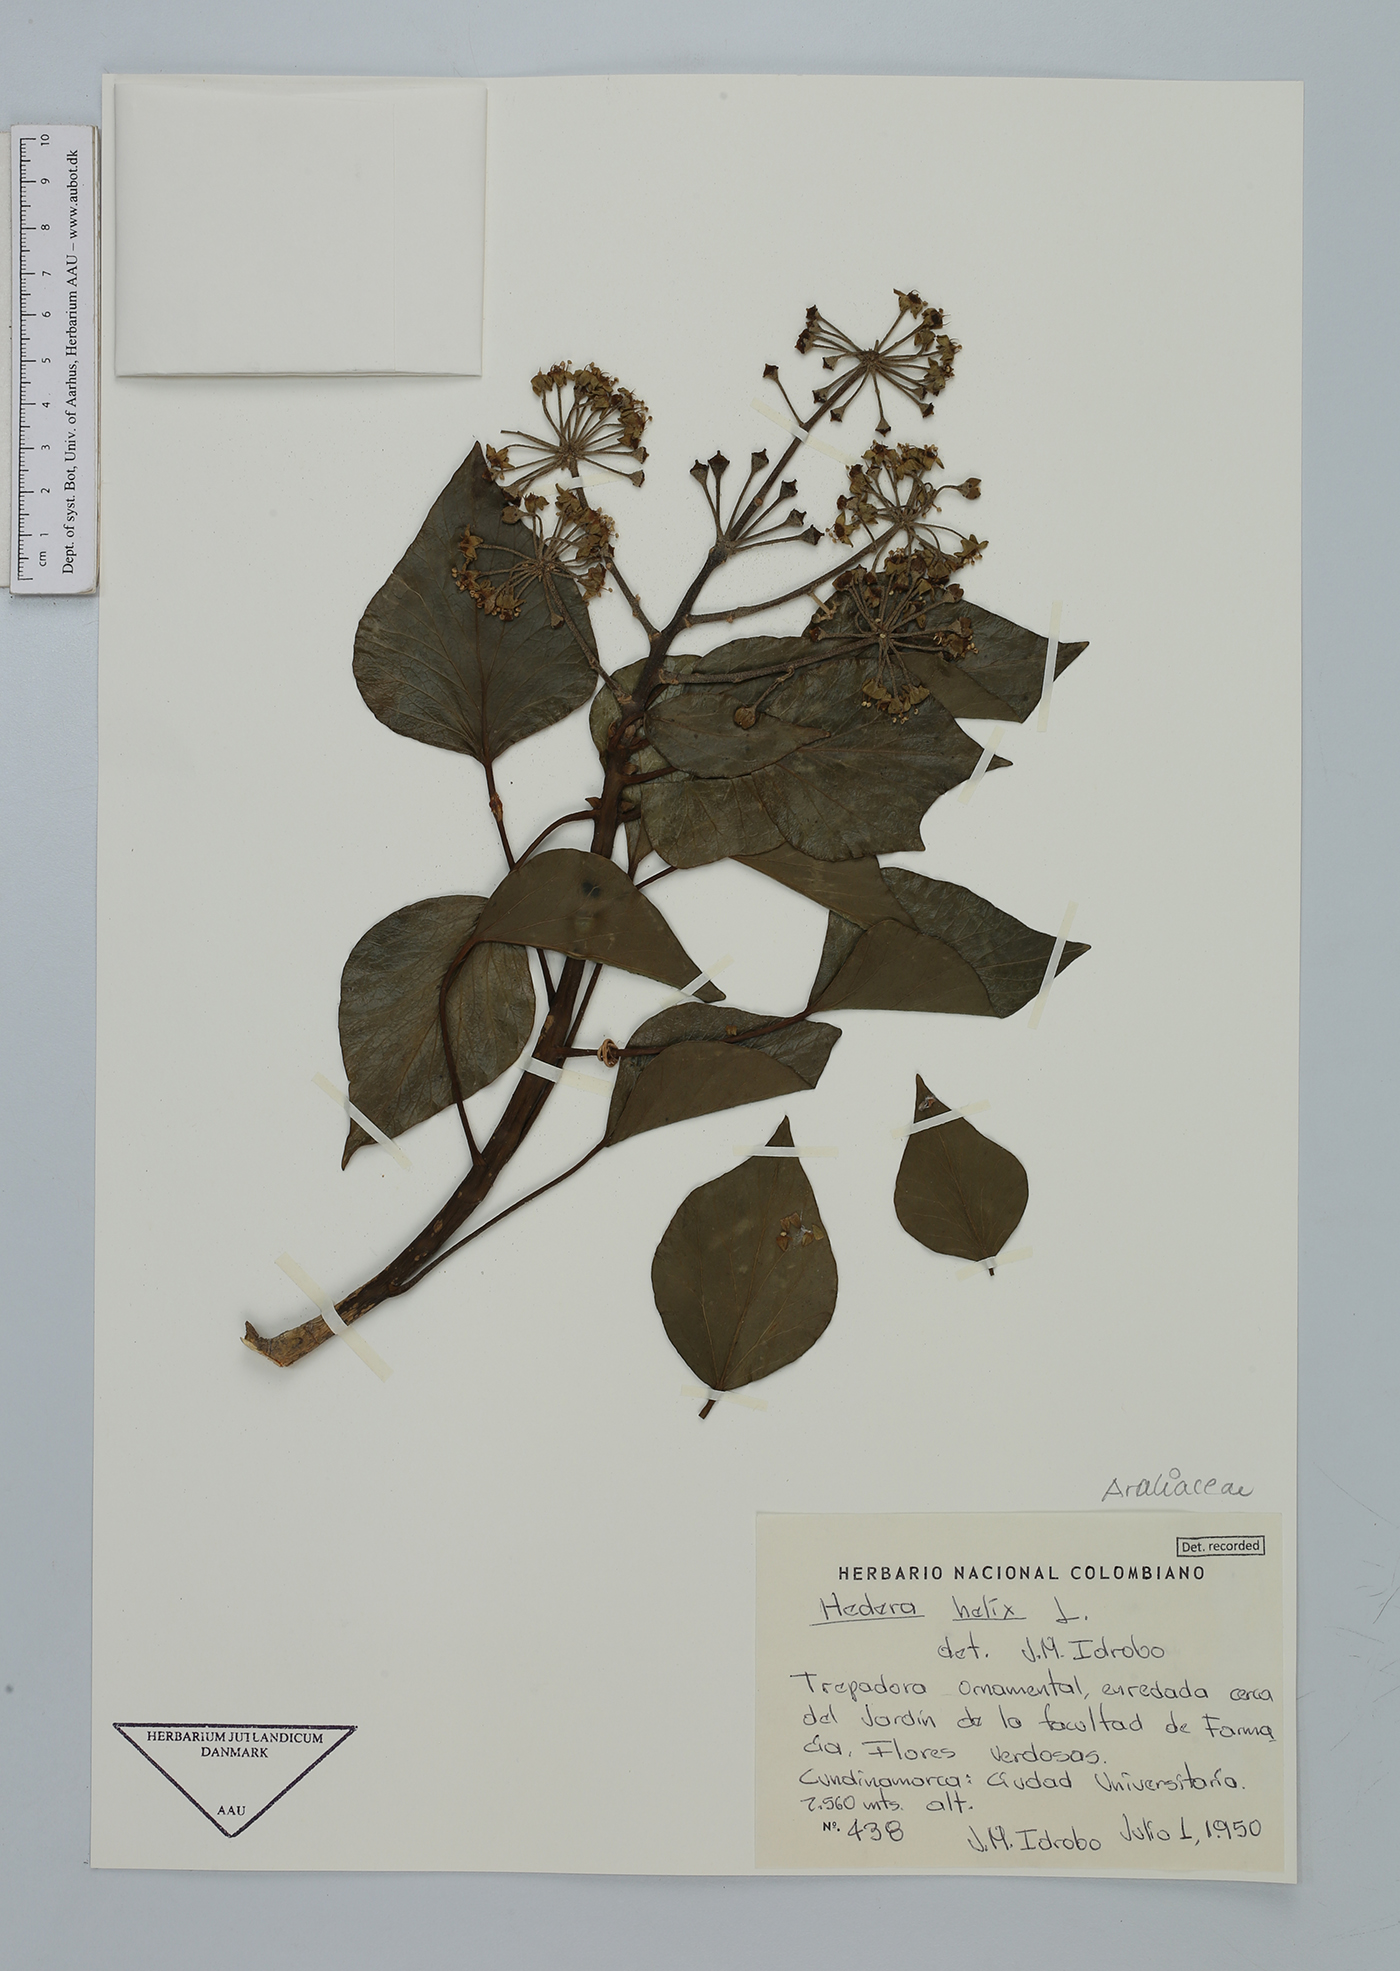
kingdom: Plantae
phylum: Tracheophyta
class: Magnoliopsida
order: Apiales
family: Araliaceae
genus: Hedera
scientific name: Hedera helix
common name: Ivy
